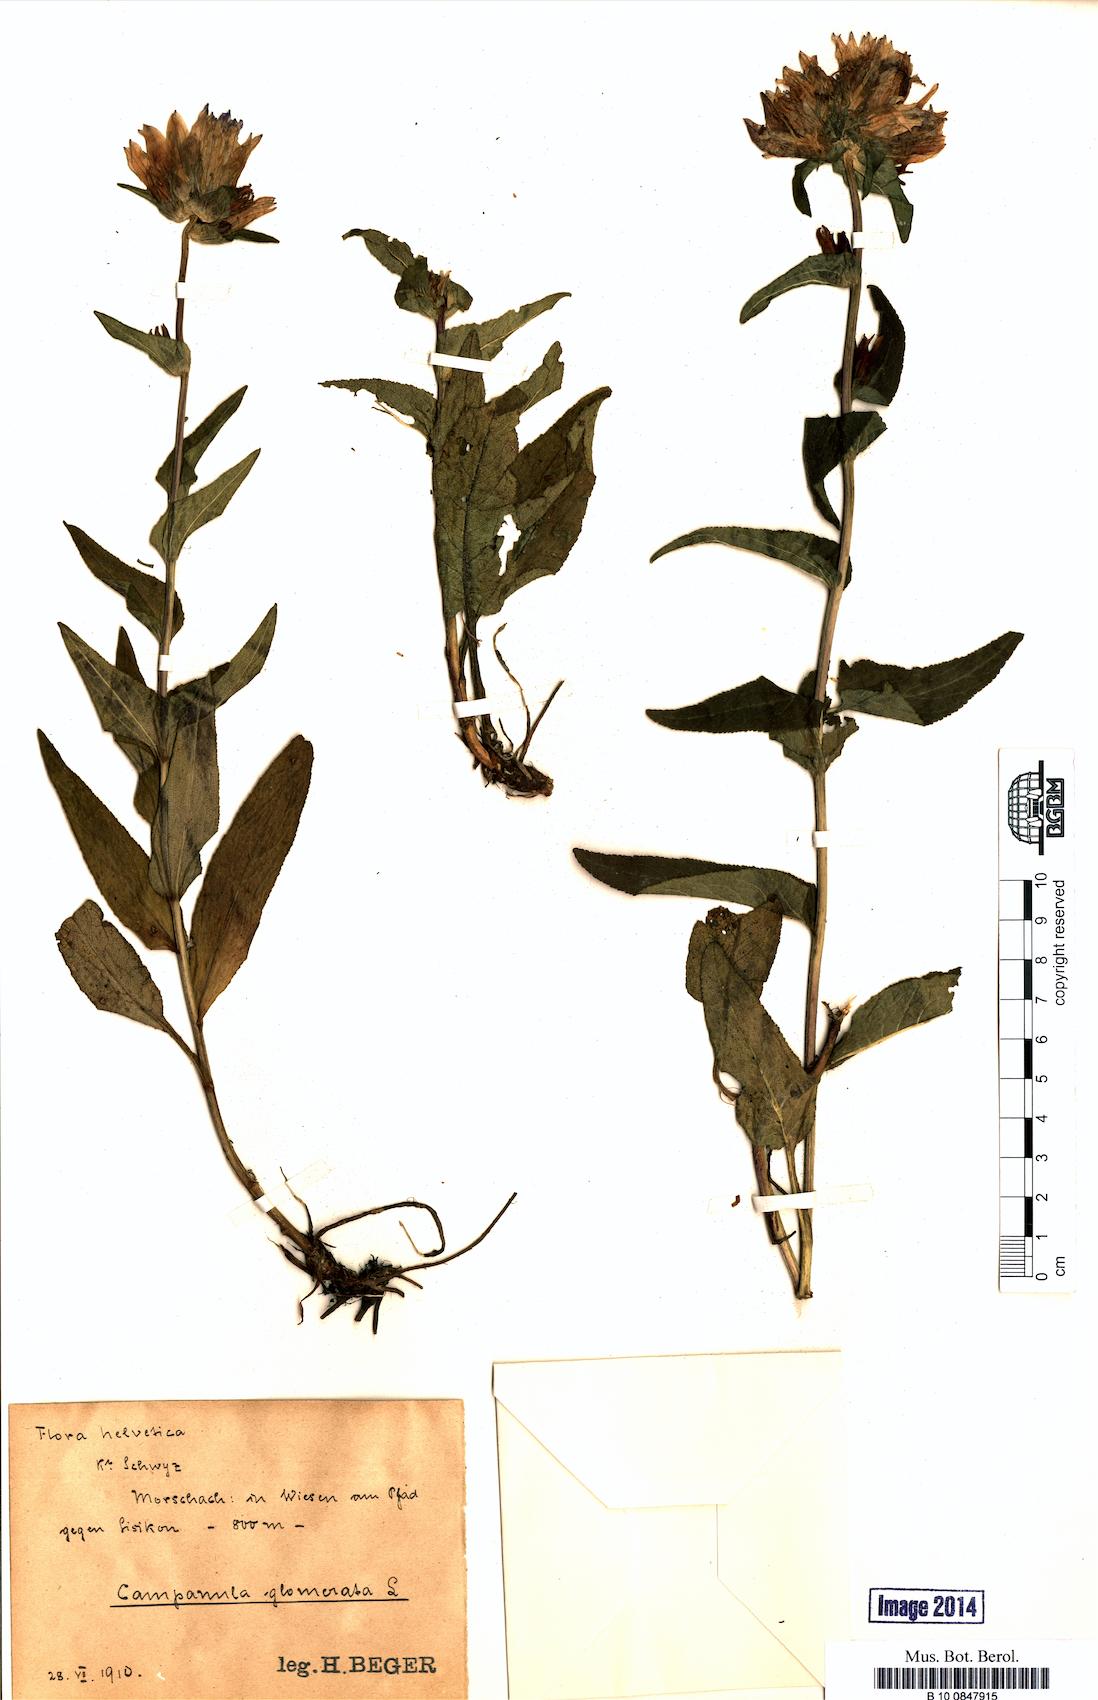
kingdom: Plantae
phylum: Tracheophyta
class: Magnoliopsida
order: Asterales
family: Campanulaceae
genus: Campanula
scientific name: Campanula glomerata
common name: Clustered bellflower
